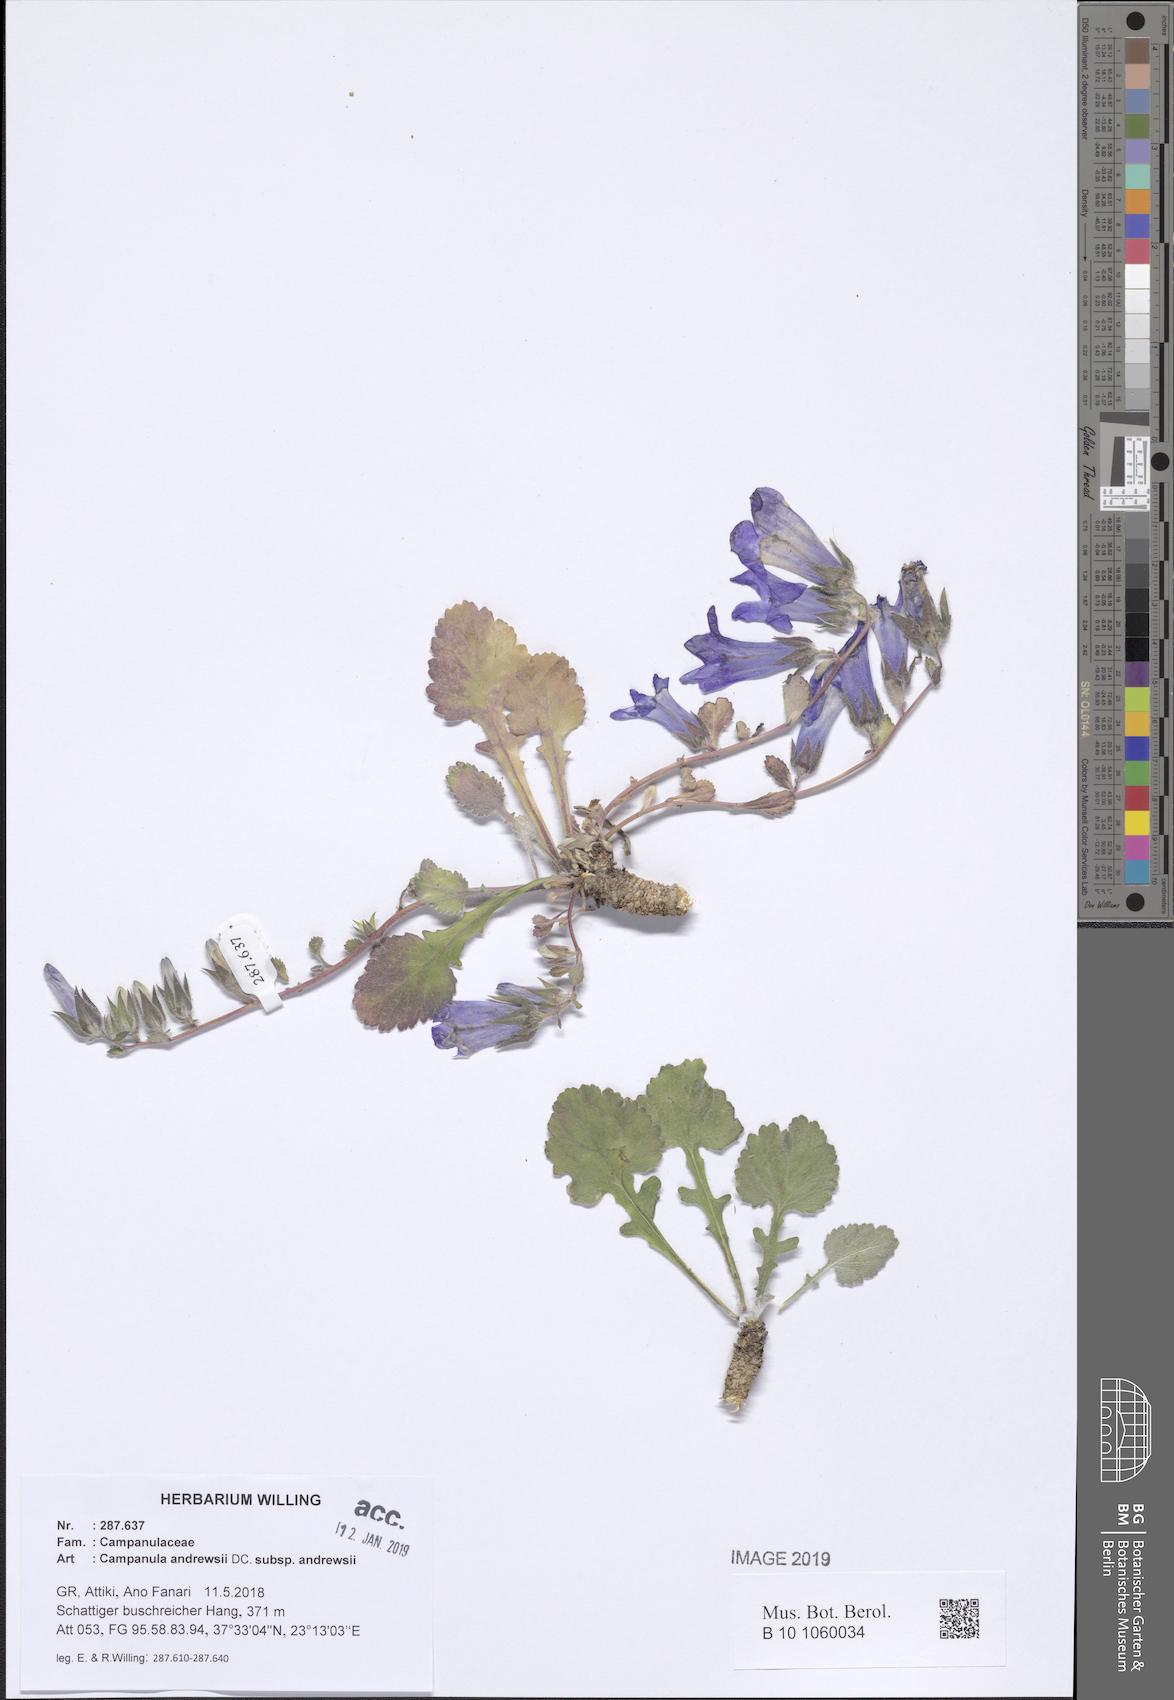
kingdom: Plantae
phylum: Tracheophyta
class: Magnoliopsida
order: Asterales
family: Campanulaceae
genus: Campanula
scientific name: Campanula andrewsii
